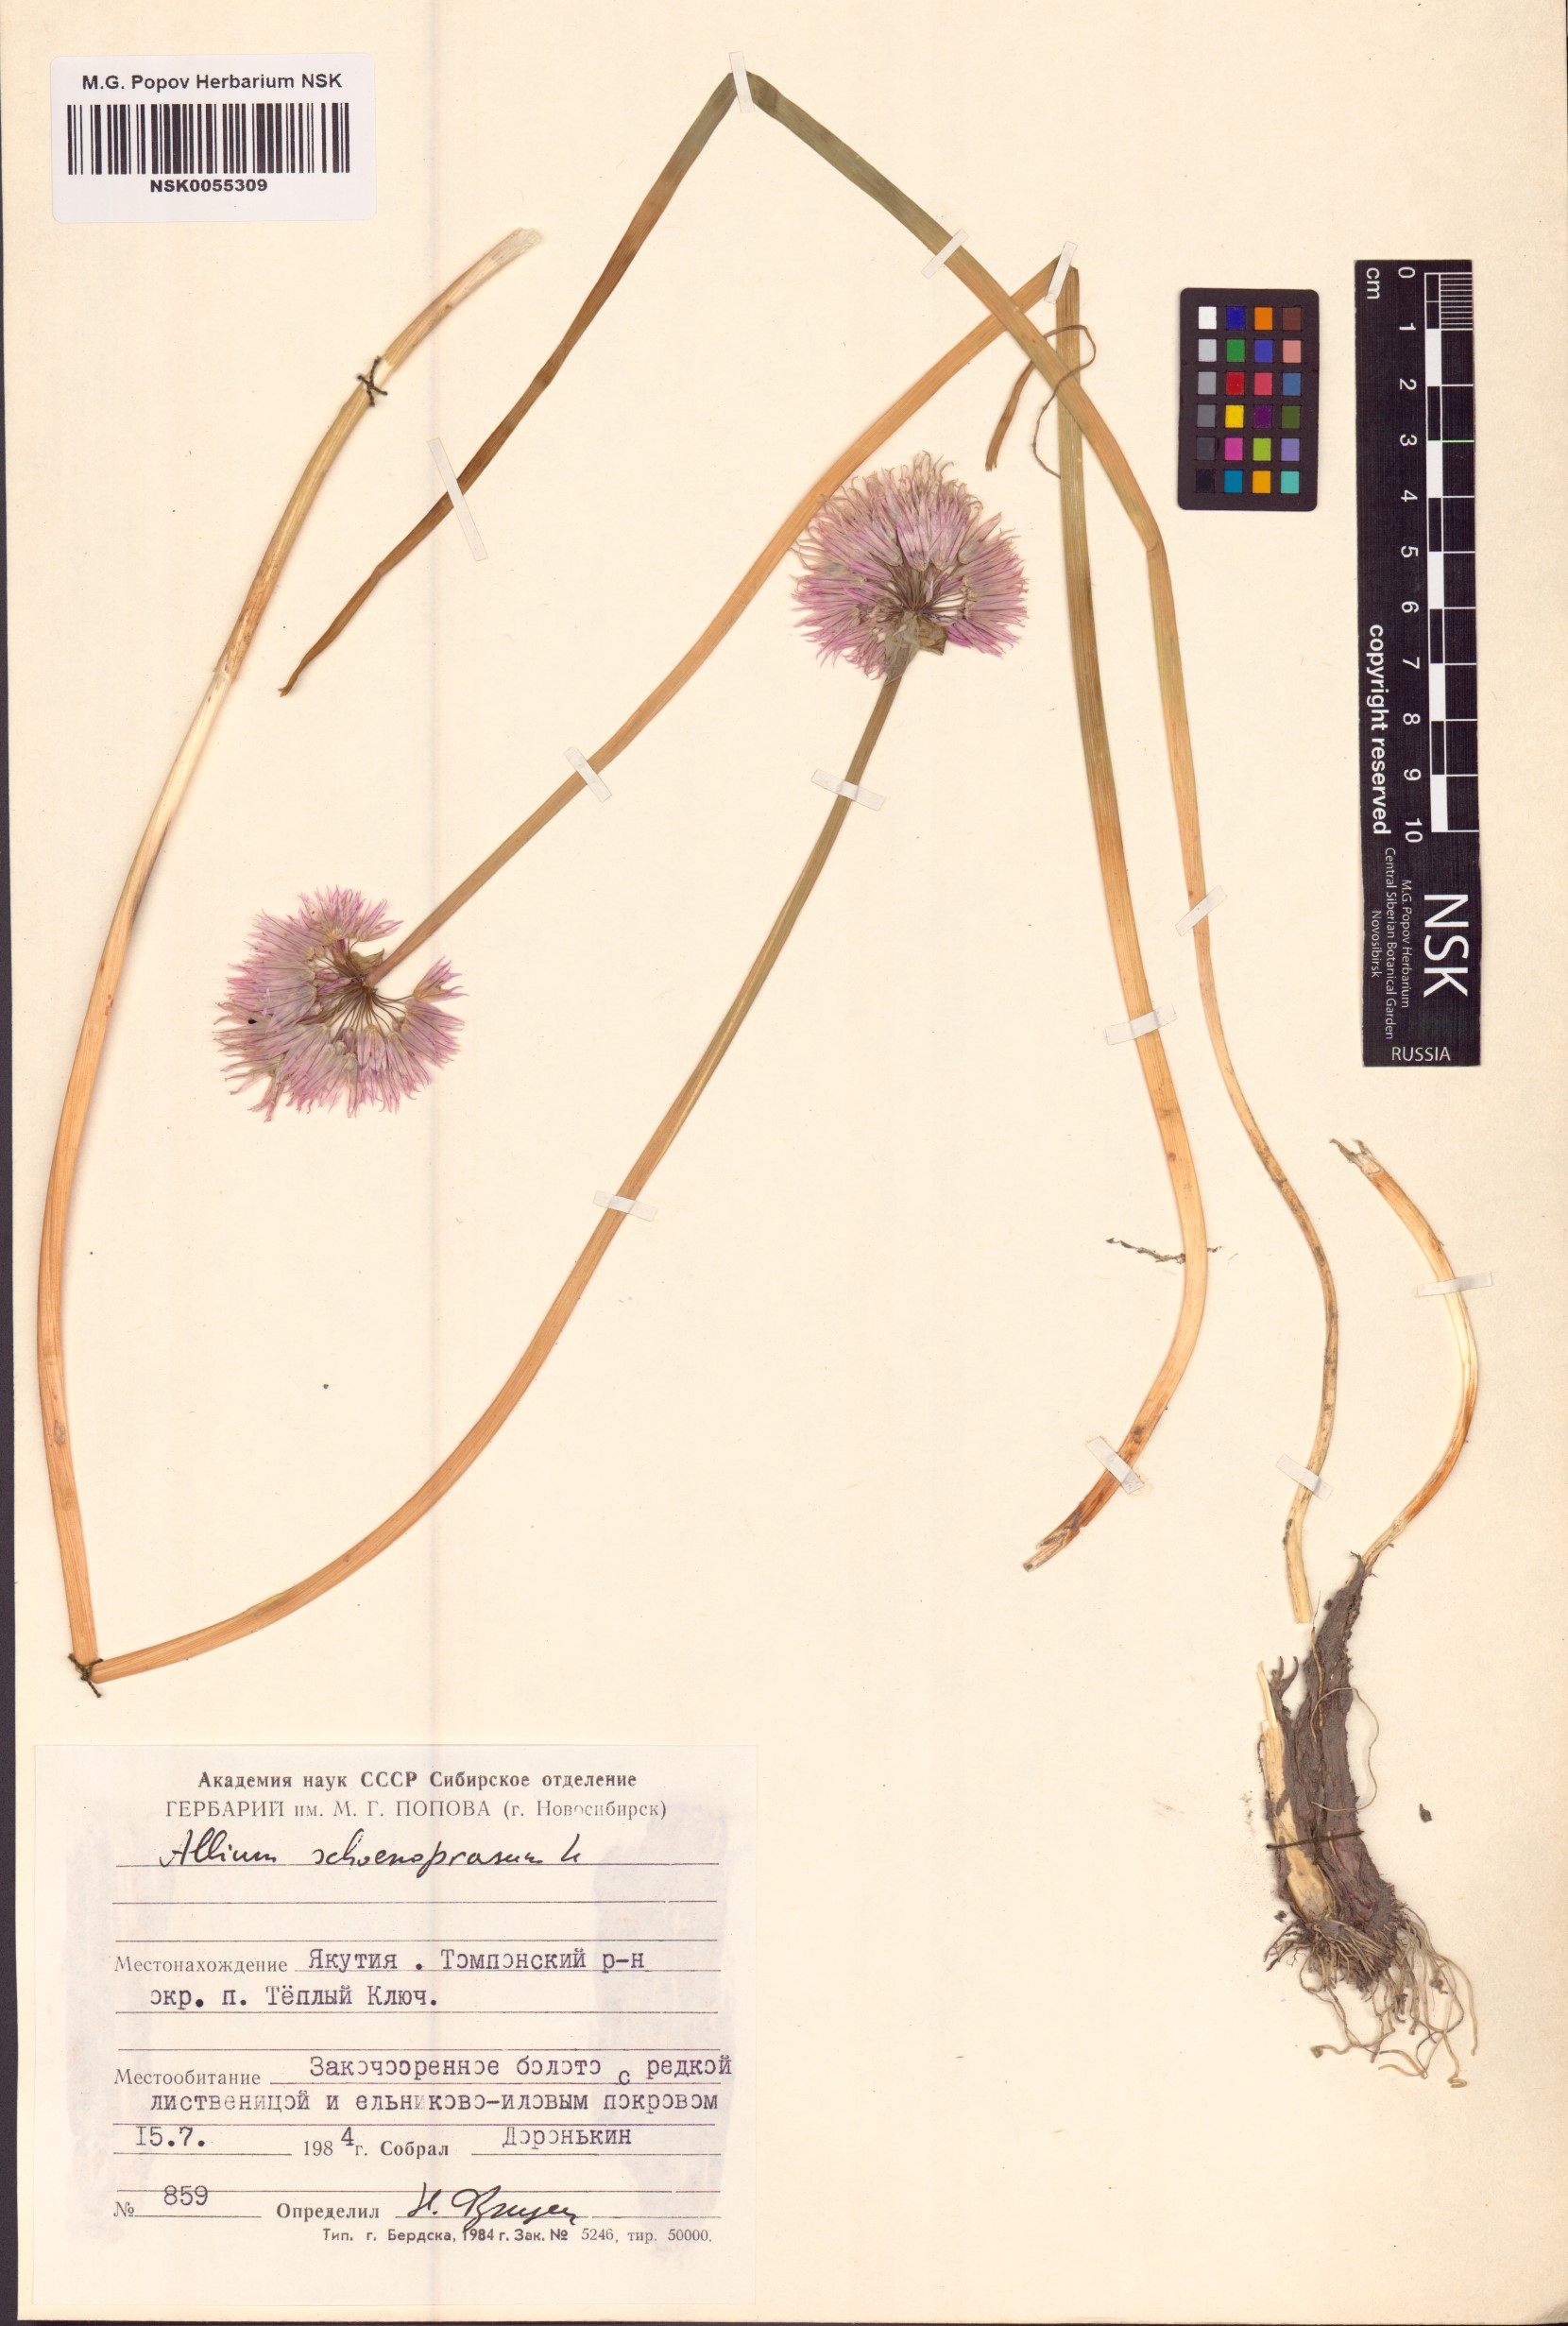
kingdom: Plantae
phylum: Tracheophyta
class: Liliopsida
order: Asparagales
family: Amaryllidaceae
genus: Allium
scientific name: Allium schoenoprasum
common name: Chives
